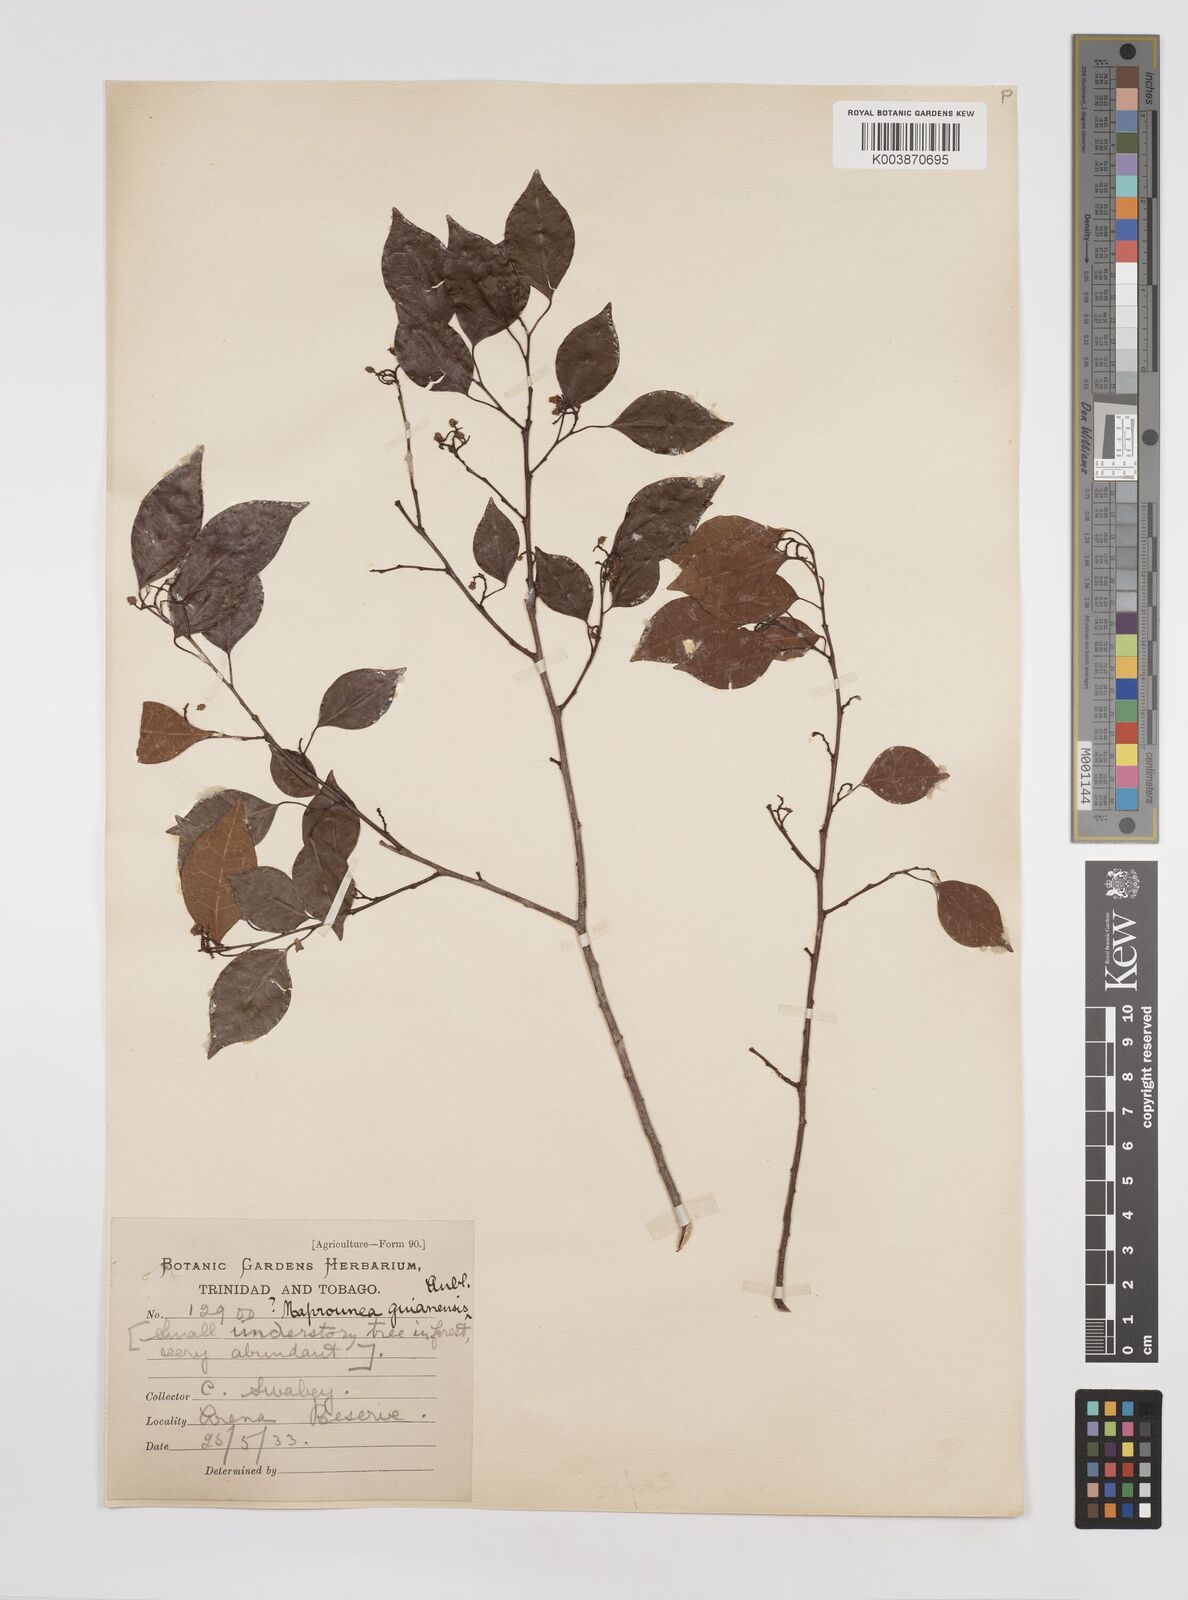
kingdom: Plantae
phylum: Tracheophyta
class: Magnoliopsida
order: Malpighiales
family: Euphorbiaceae
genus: Maprounea
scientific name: Maprounea guianensis
